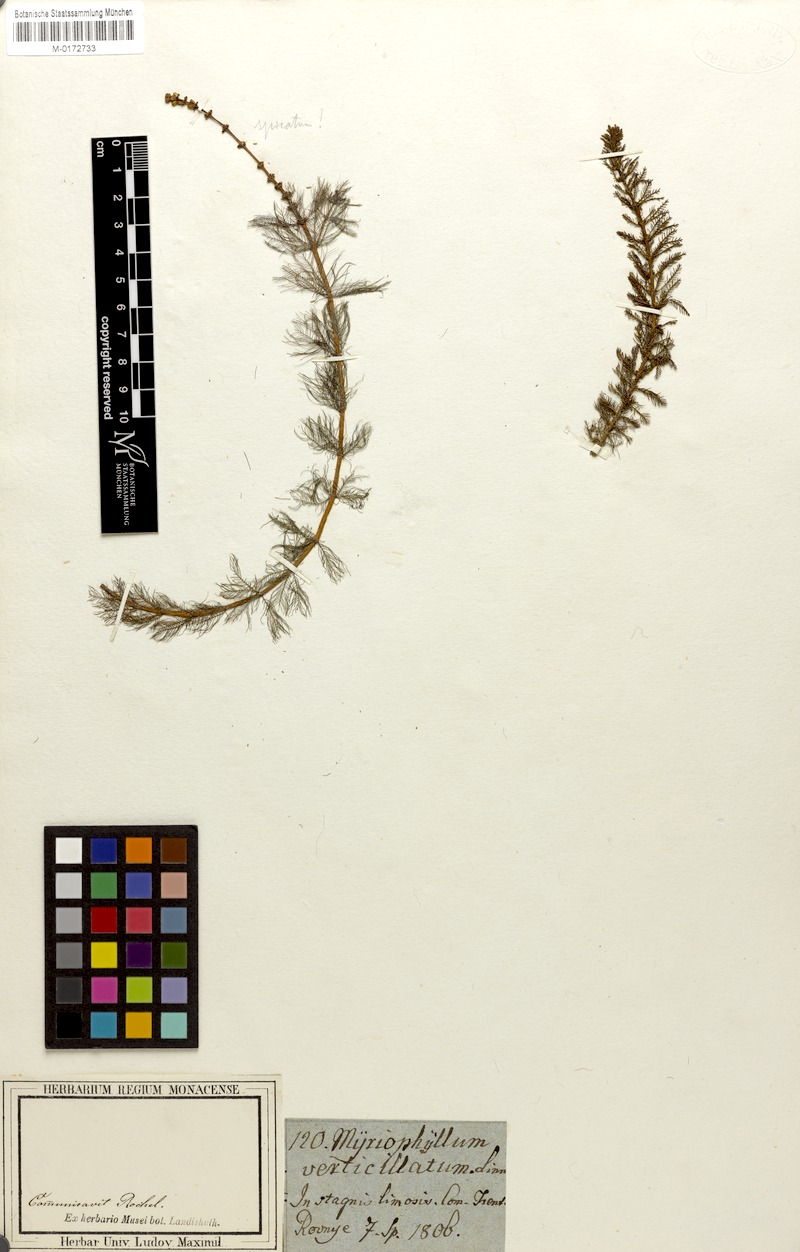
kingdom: Plantae
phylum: Tracheophyta
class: Magnoliopsida
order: Saxifragales
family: Haloragaceae
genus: Myriophyllum
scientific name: Myriophyllum verticillatum
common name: Whorled water-milfoil
